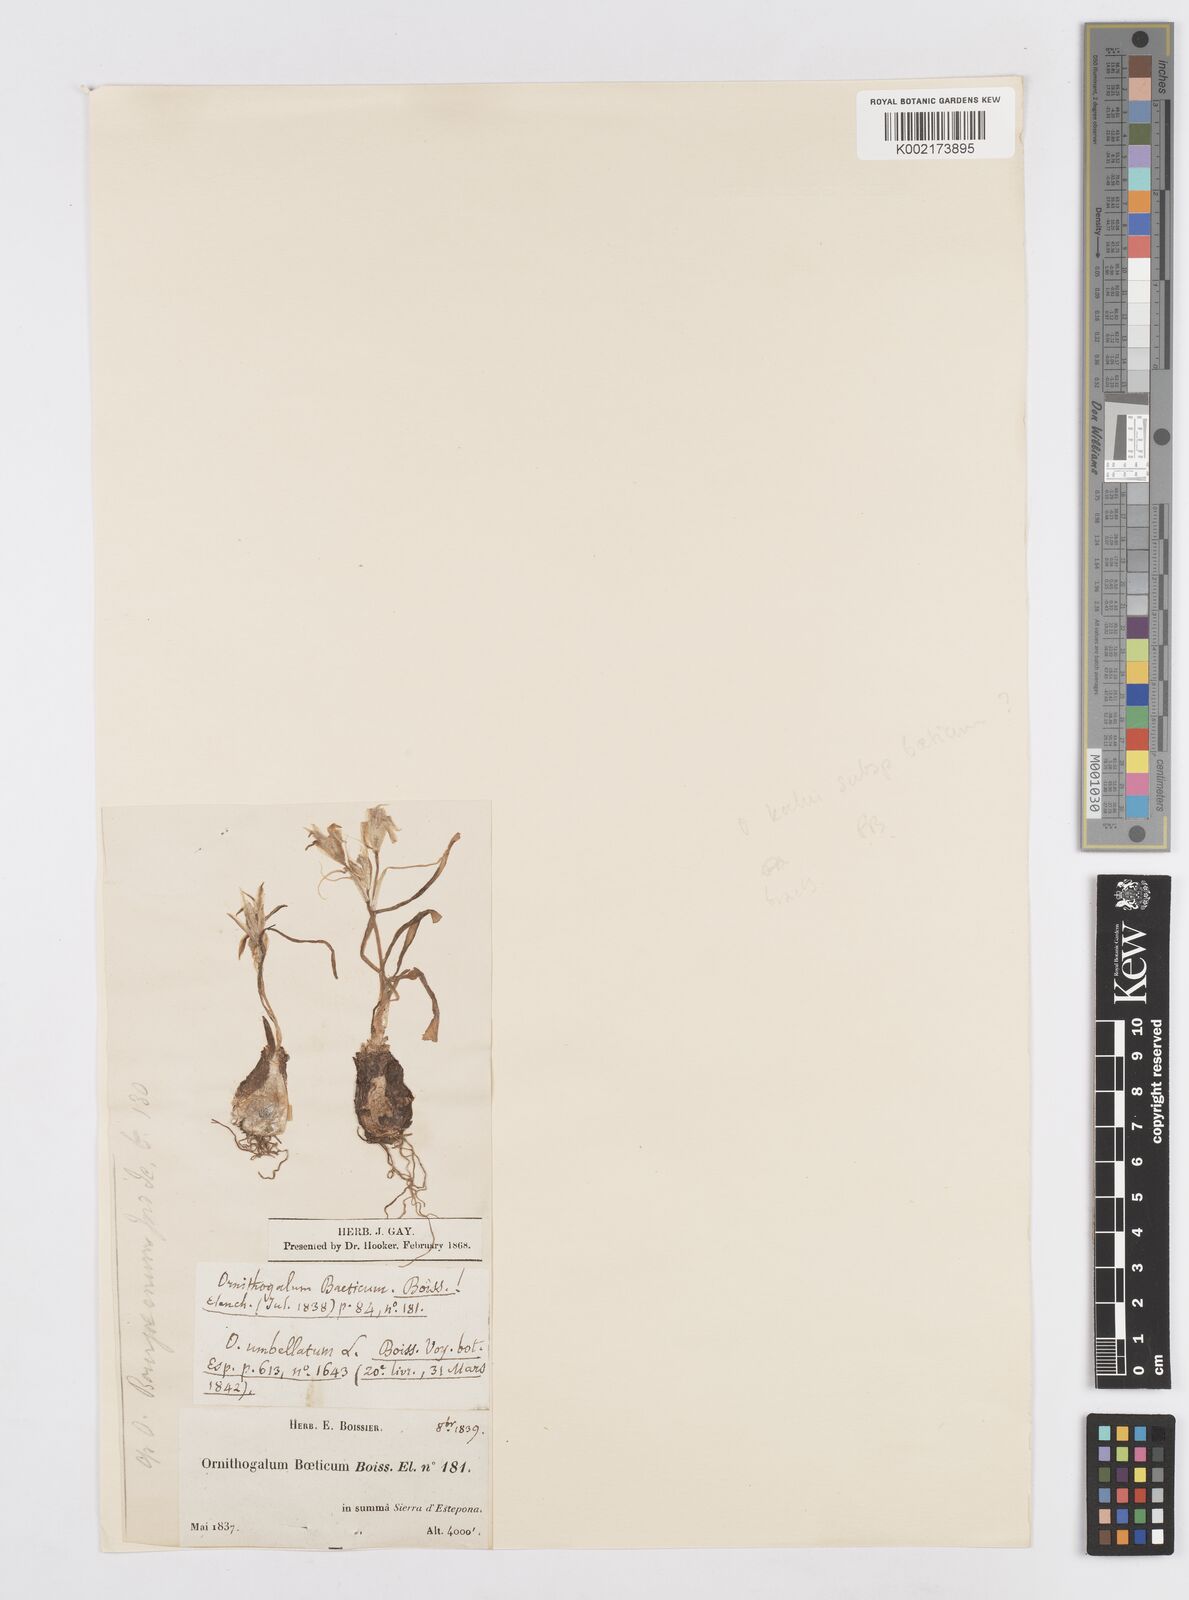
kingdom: Plantae
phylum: Tracheophyta
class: Liliopsida
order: Asparagales
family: Asparagaceae
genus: Ornithogalum
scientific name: Ornithogalum orthophyllum
